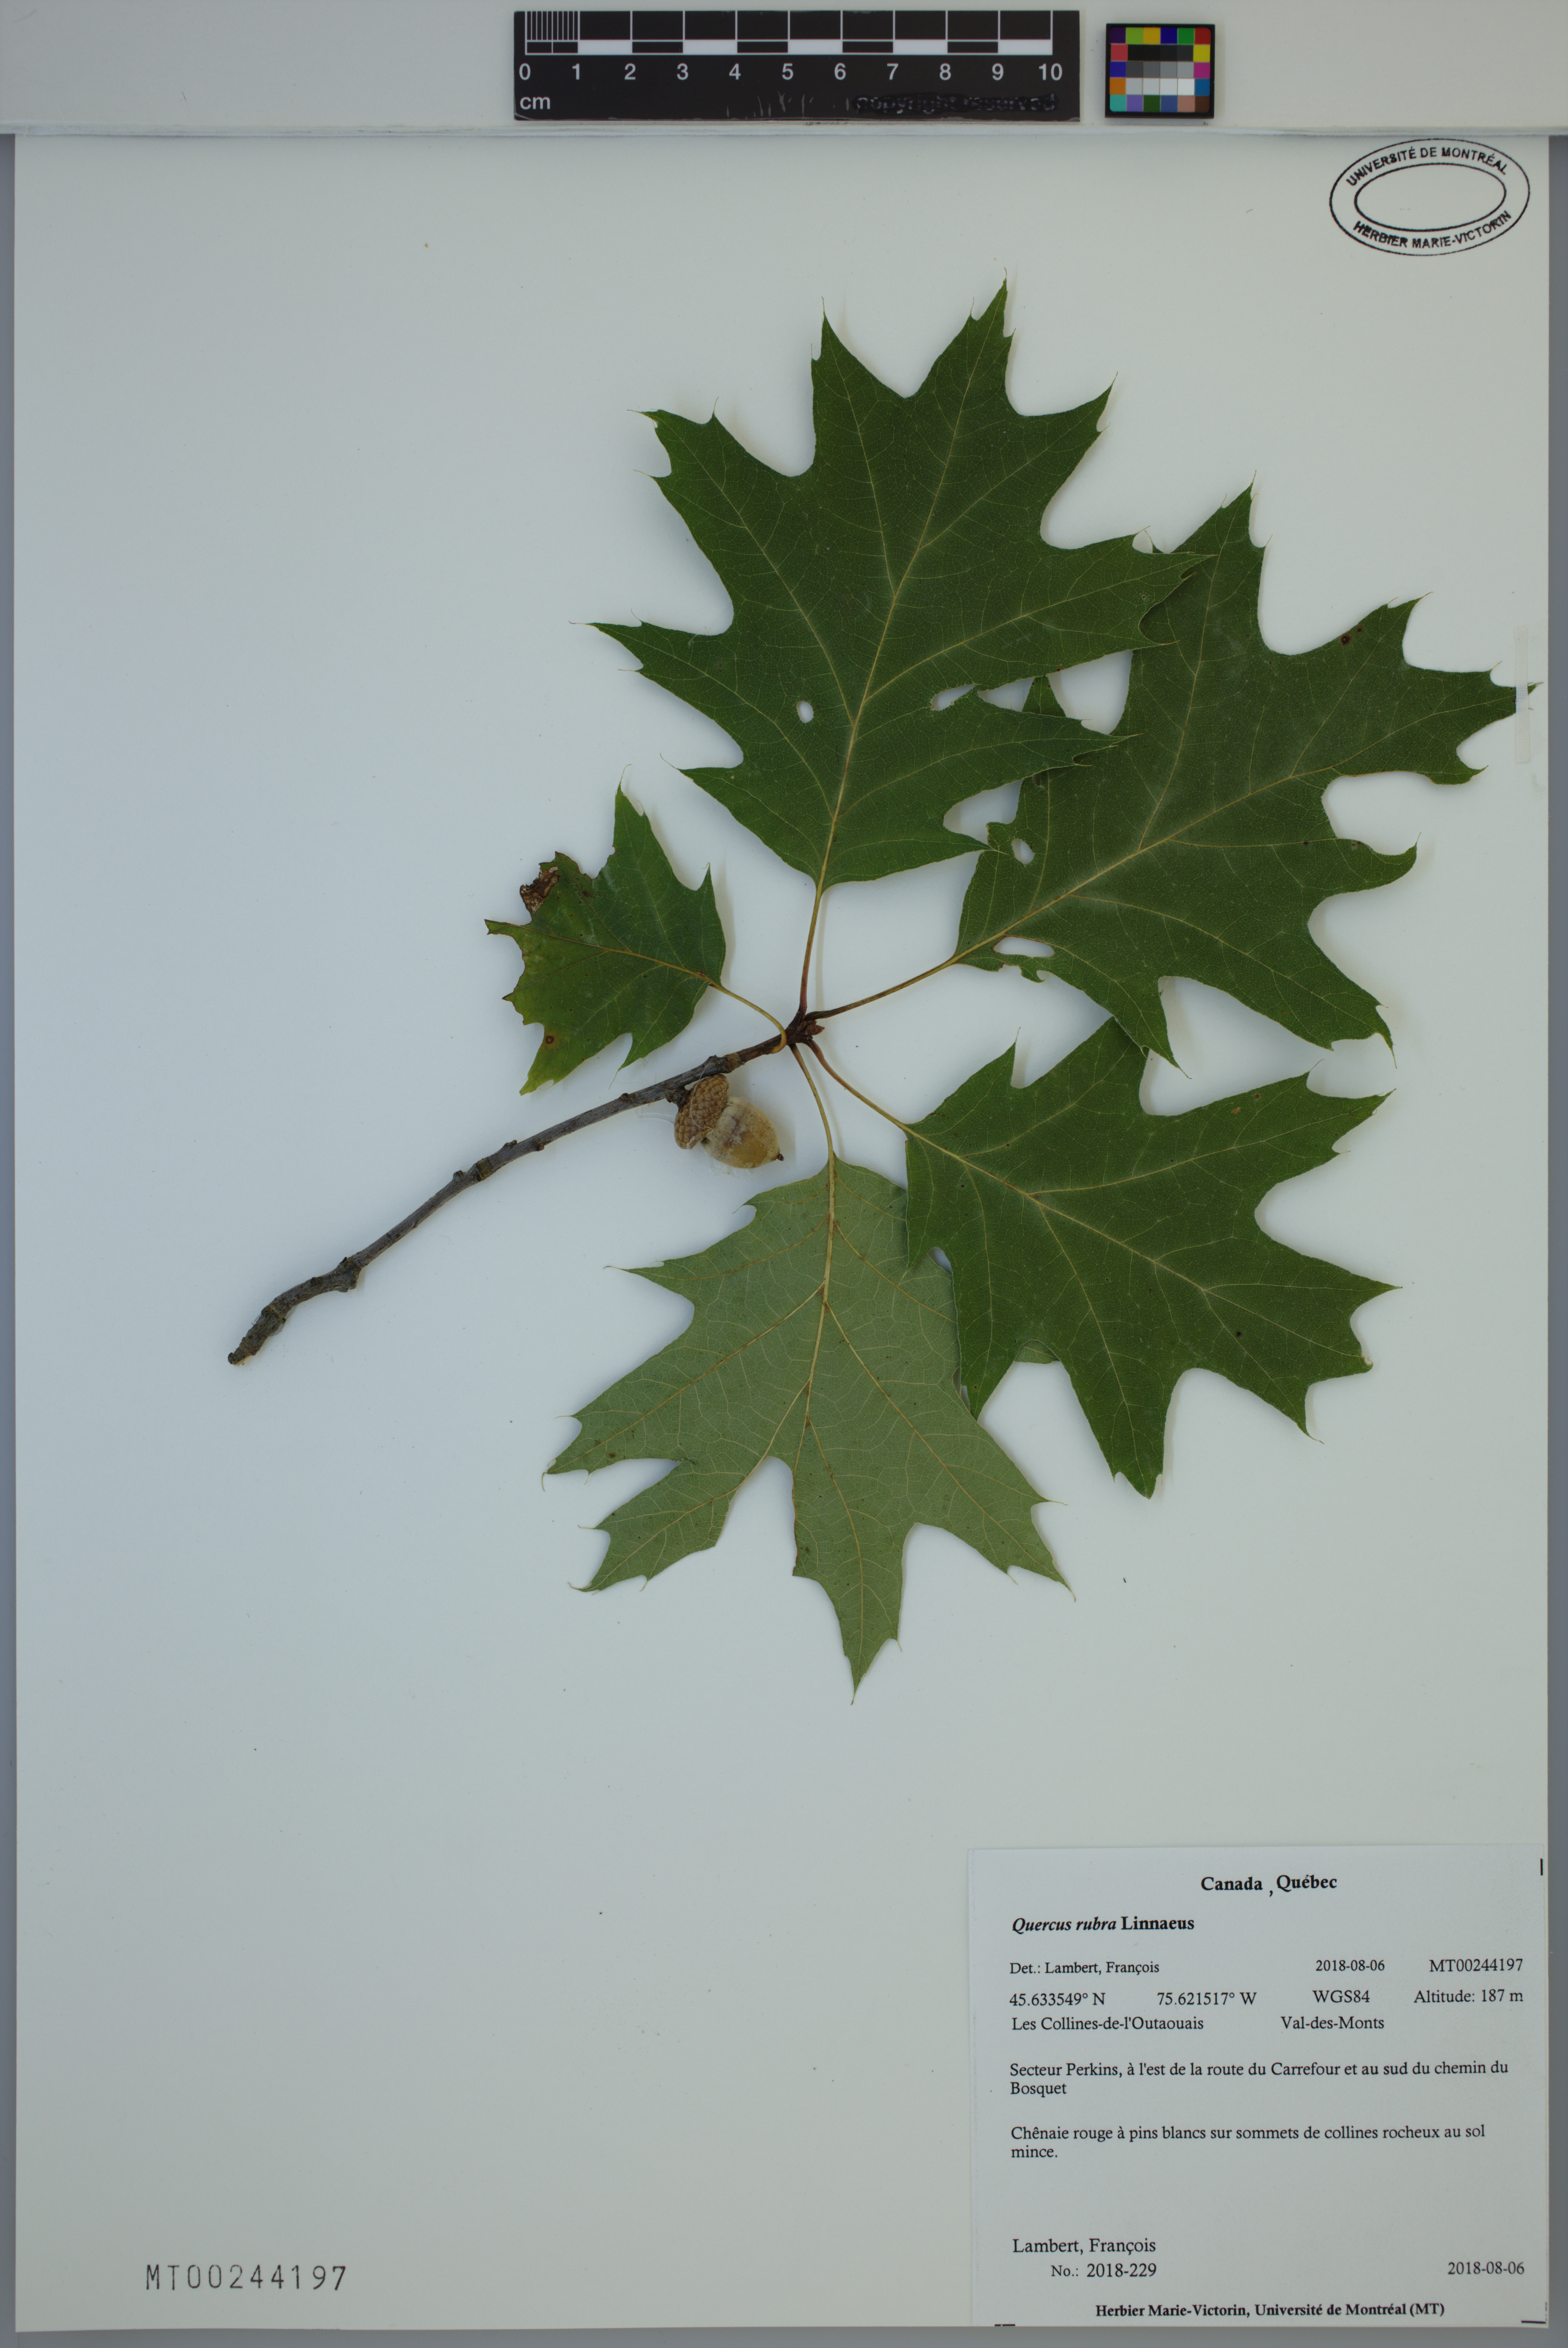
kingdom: Plantae
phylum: Tracheophyta
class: Magnoliopsida
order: Fagales
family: Fagaceae
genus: Quercus
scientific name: Quercus rubra
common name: Red oak
